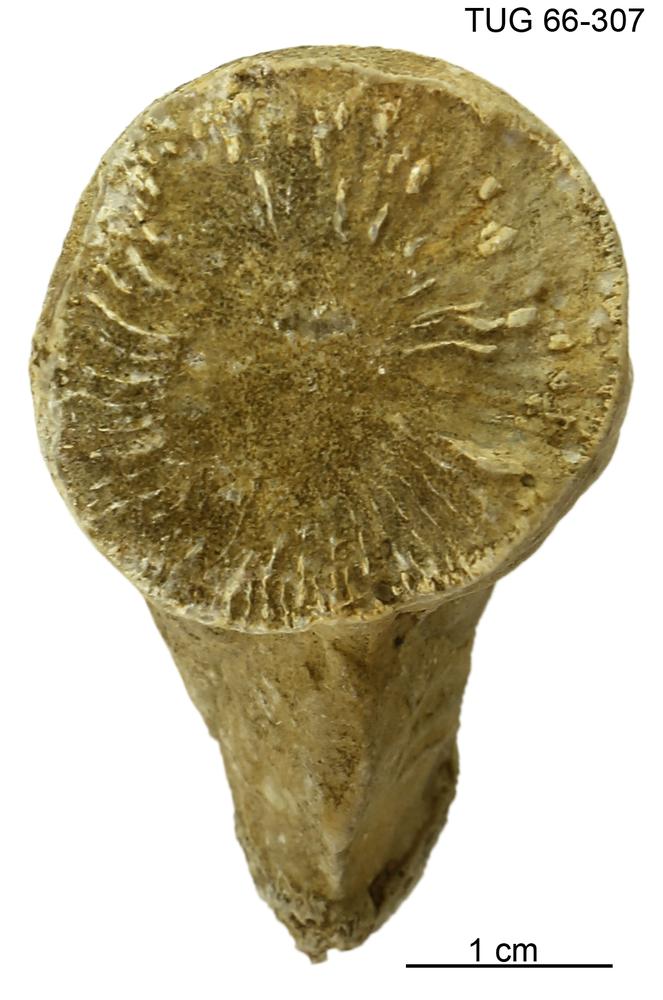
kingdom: Animalia
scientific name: Animalia
